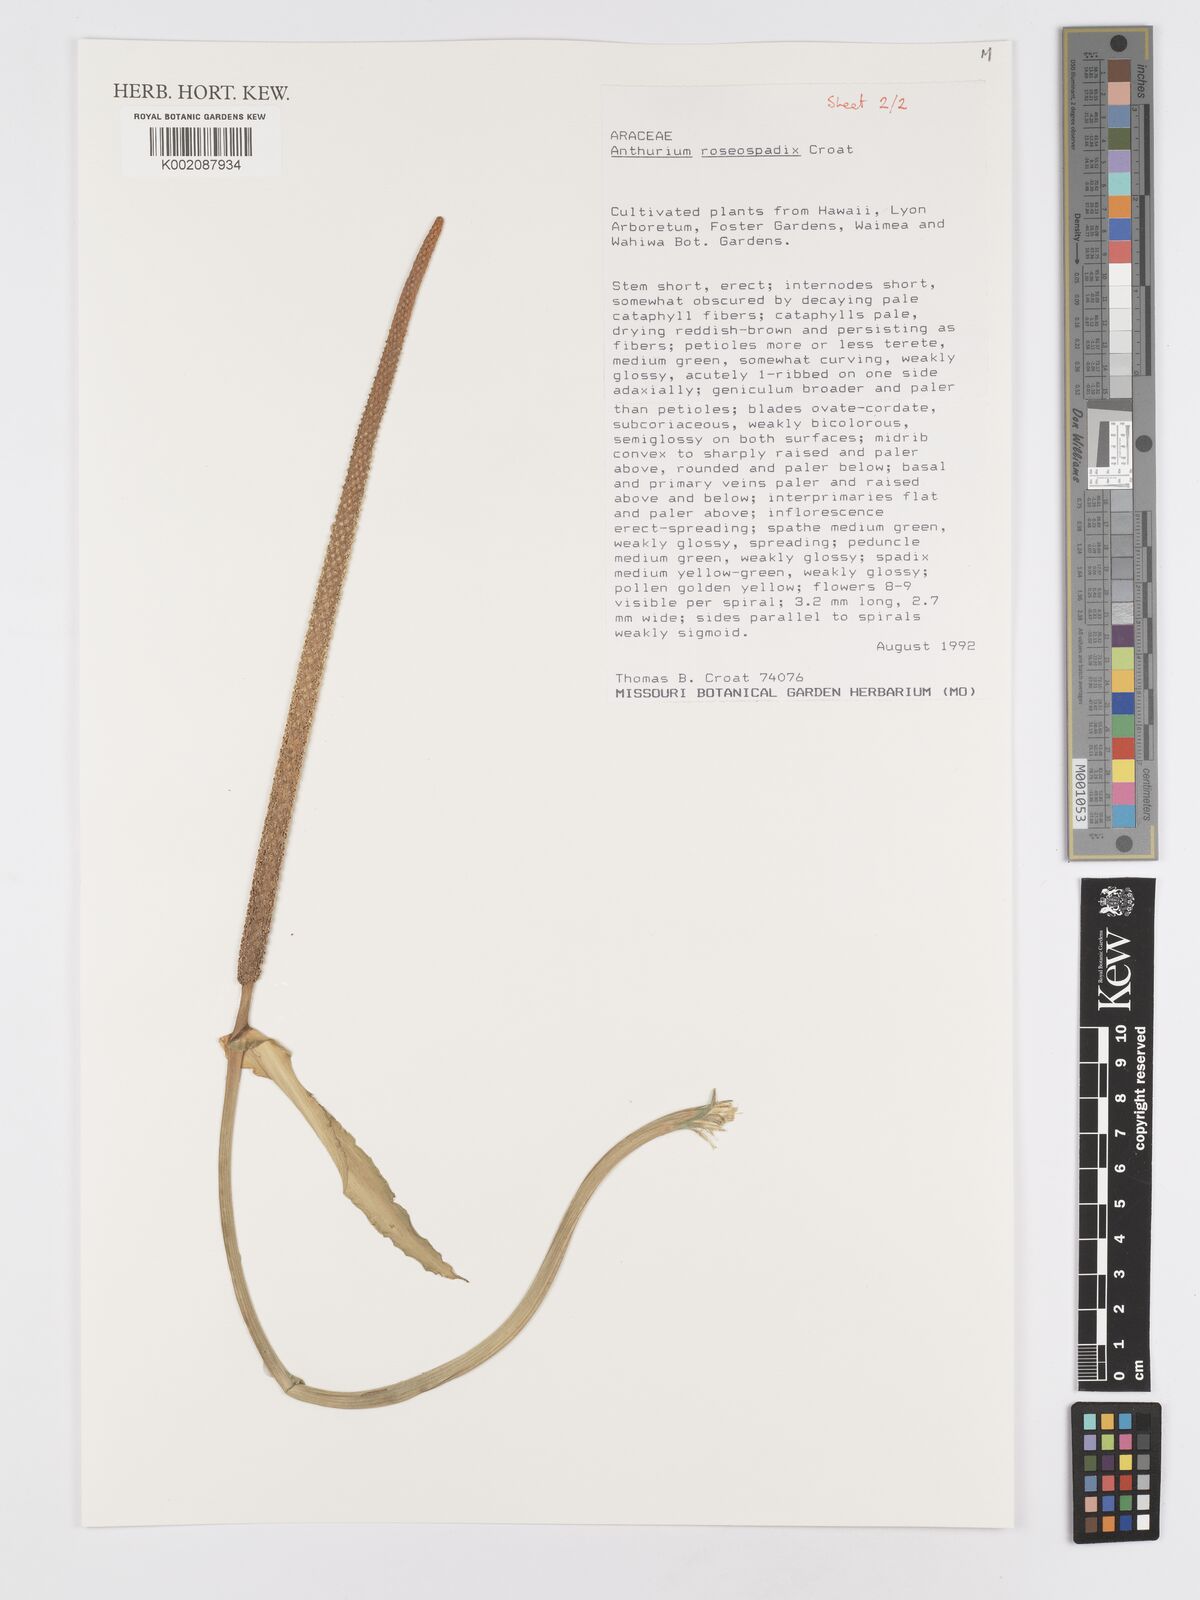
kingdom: Plantae
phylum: Tracheophyta
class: Liliopsida
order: Alismatales
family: Araceae
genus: Anthurium
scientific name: Anthurium roseospadix
